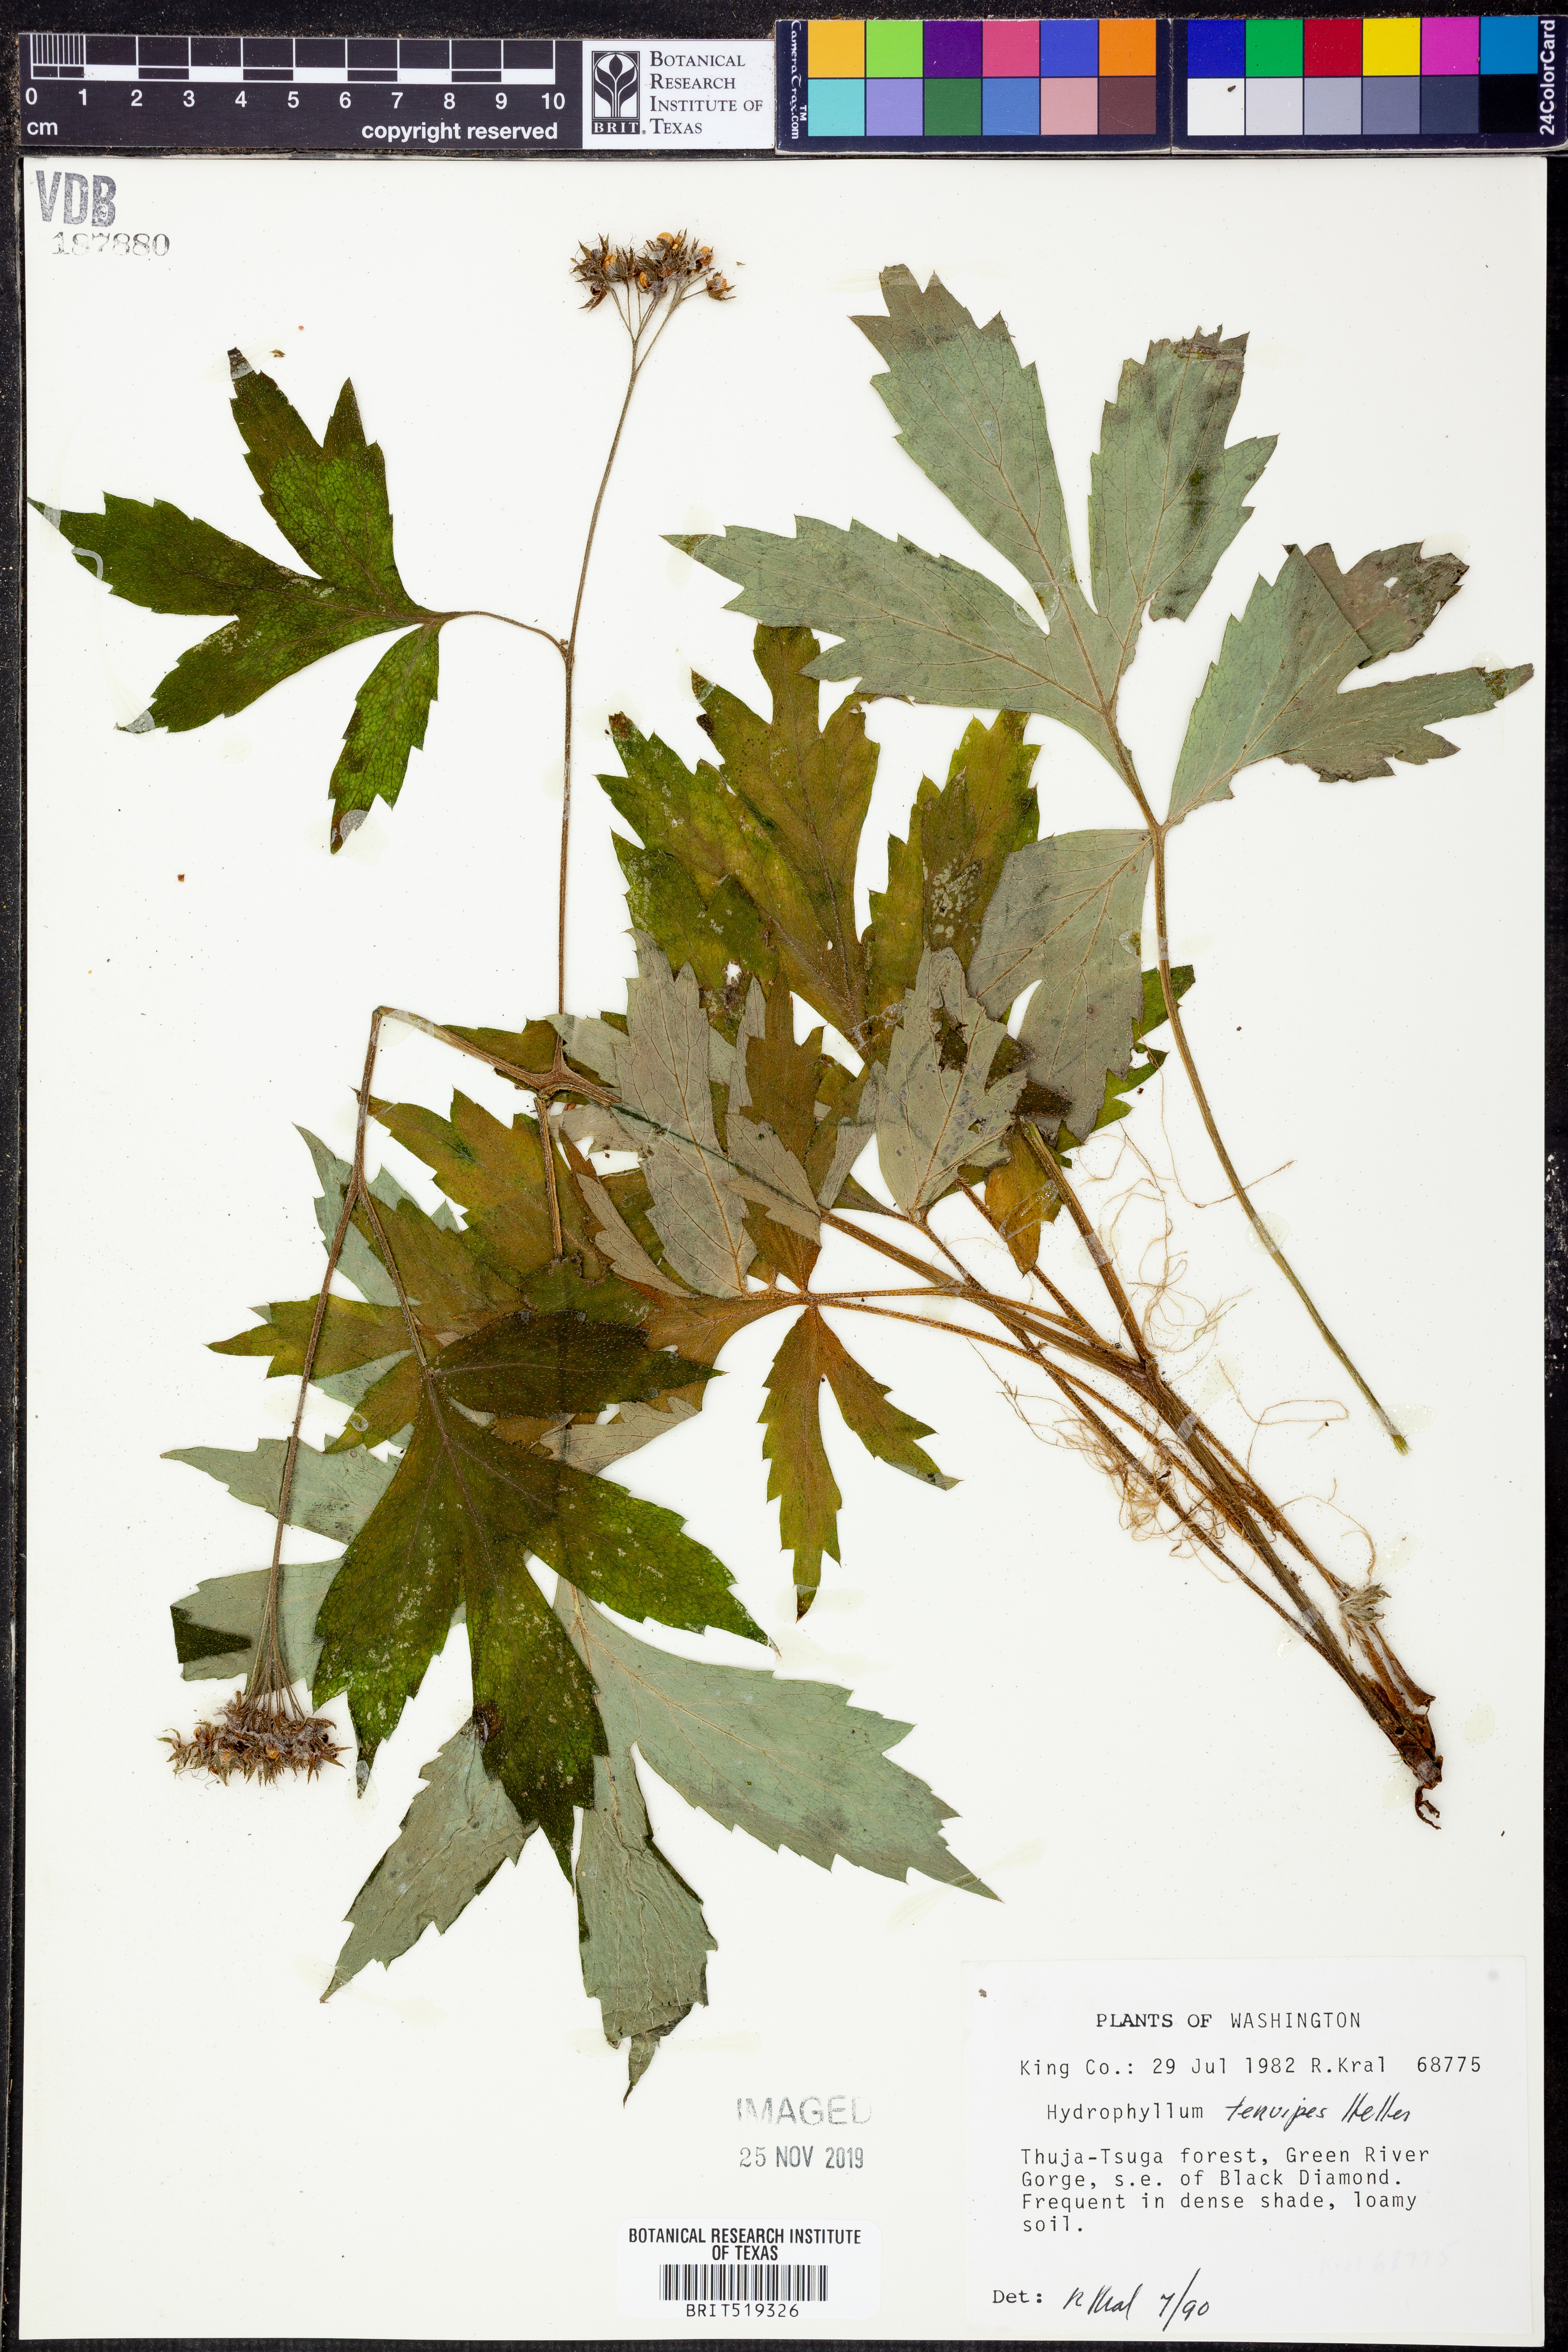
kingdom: Plantae
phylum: Tracheophyta
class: Magnoliopsida
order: Boraginales
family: Hydrophyllaceae
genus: Hydrophyllum
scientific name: Hydrophyllum tenuipes
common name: Pacific waterleaf
